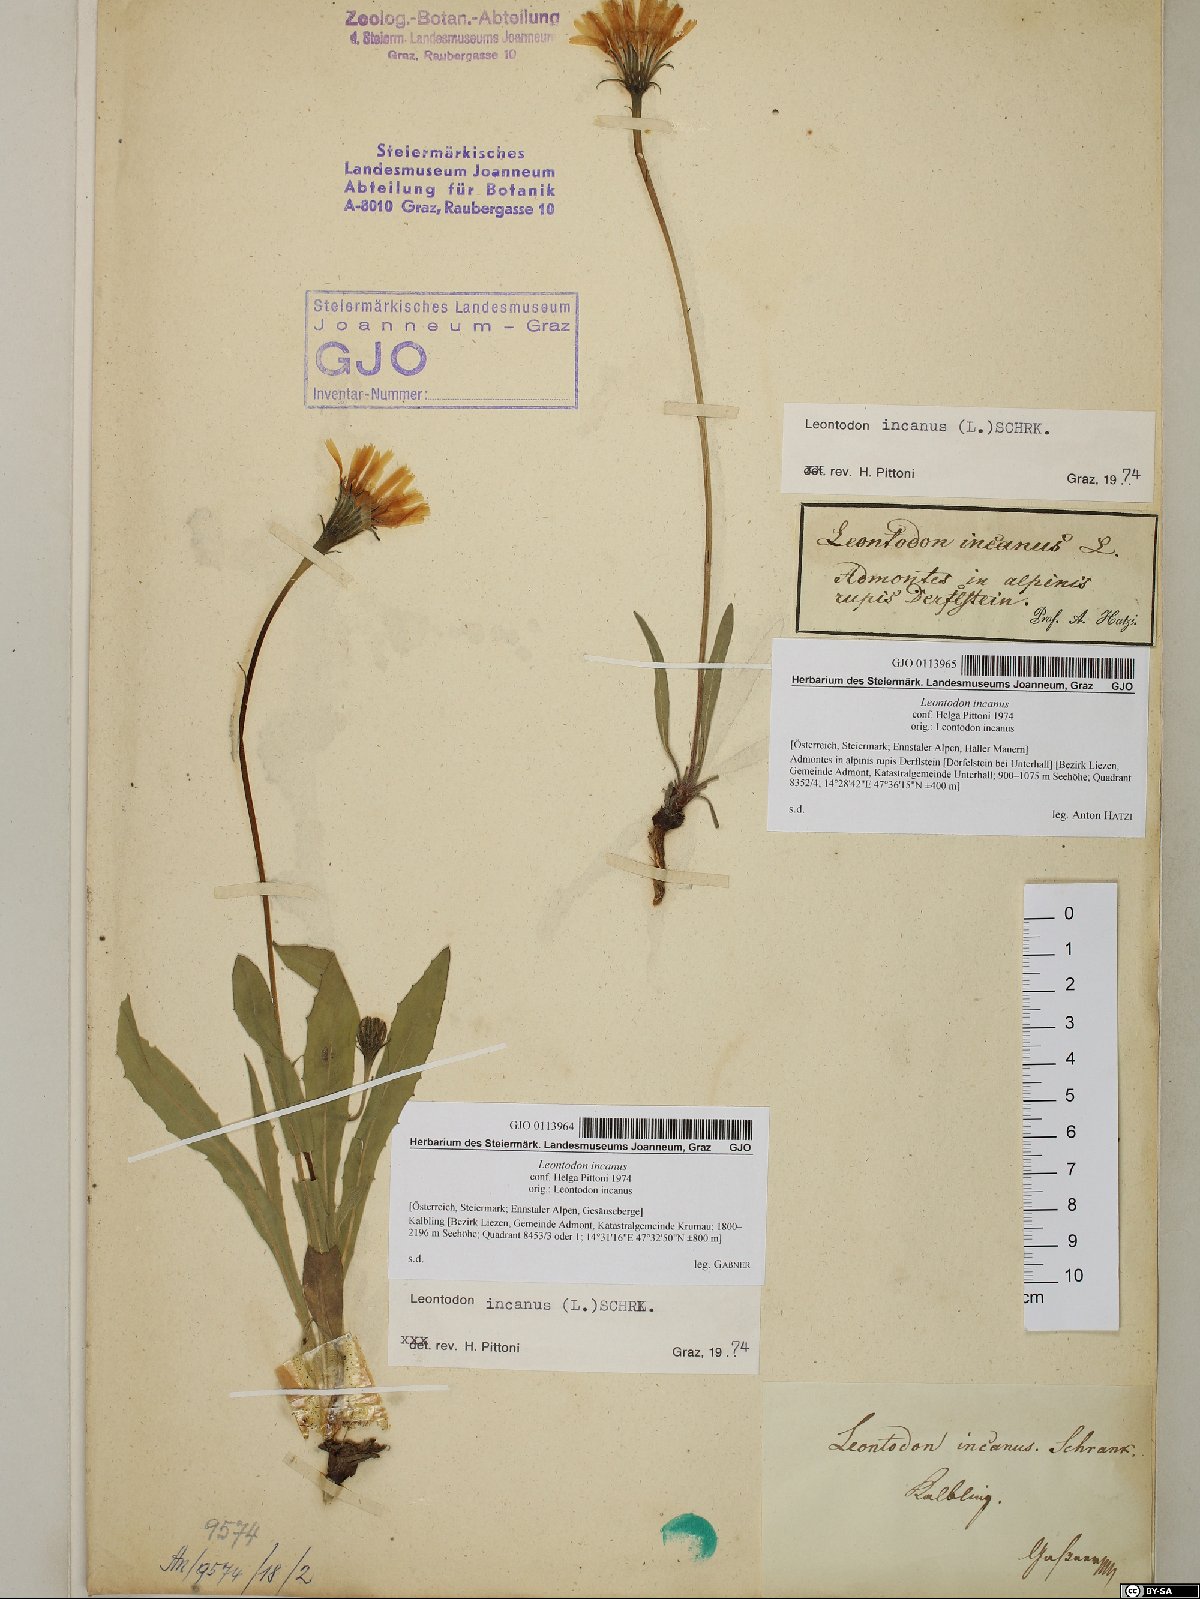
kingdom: Plantae
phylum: Tracheophyta
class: Magnoliopsida
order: Asterales
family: Asteraceae
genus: Leontodon
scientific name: Leontodon incanus
